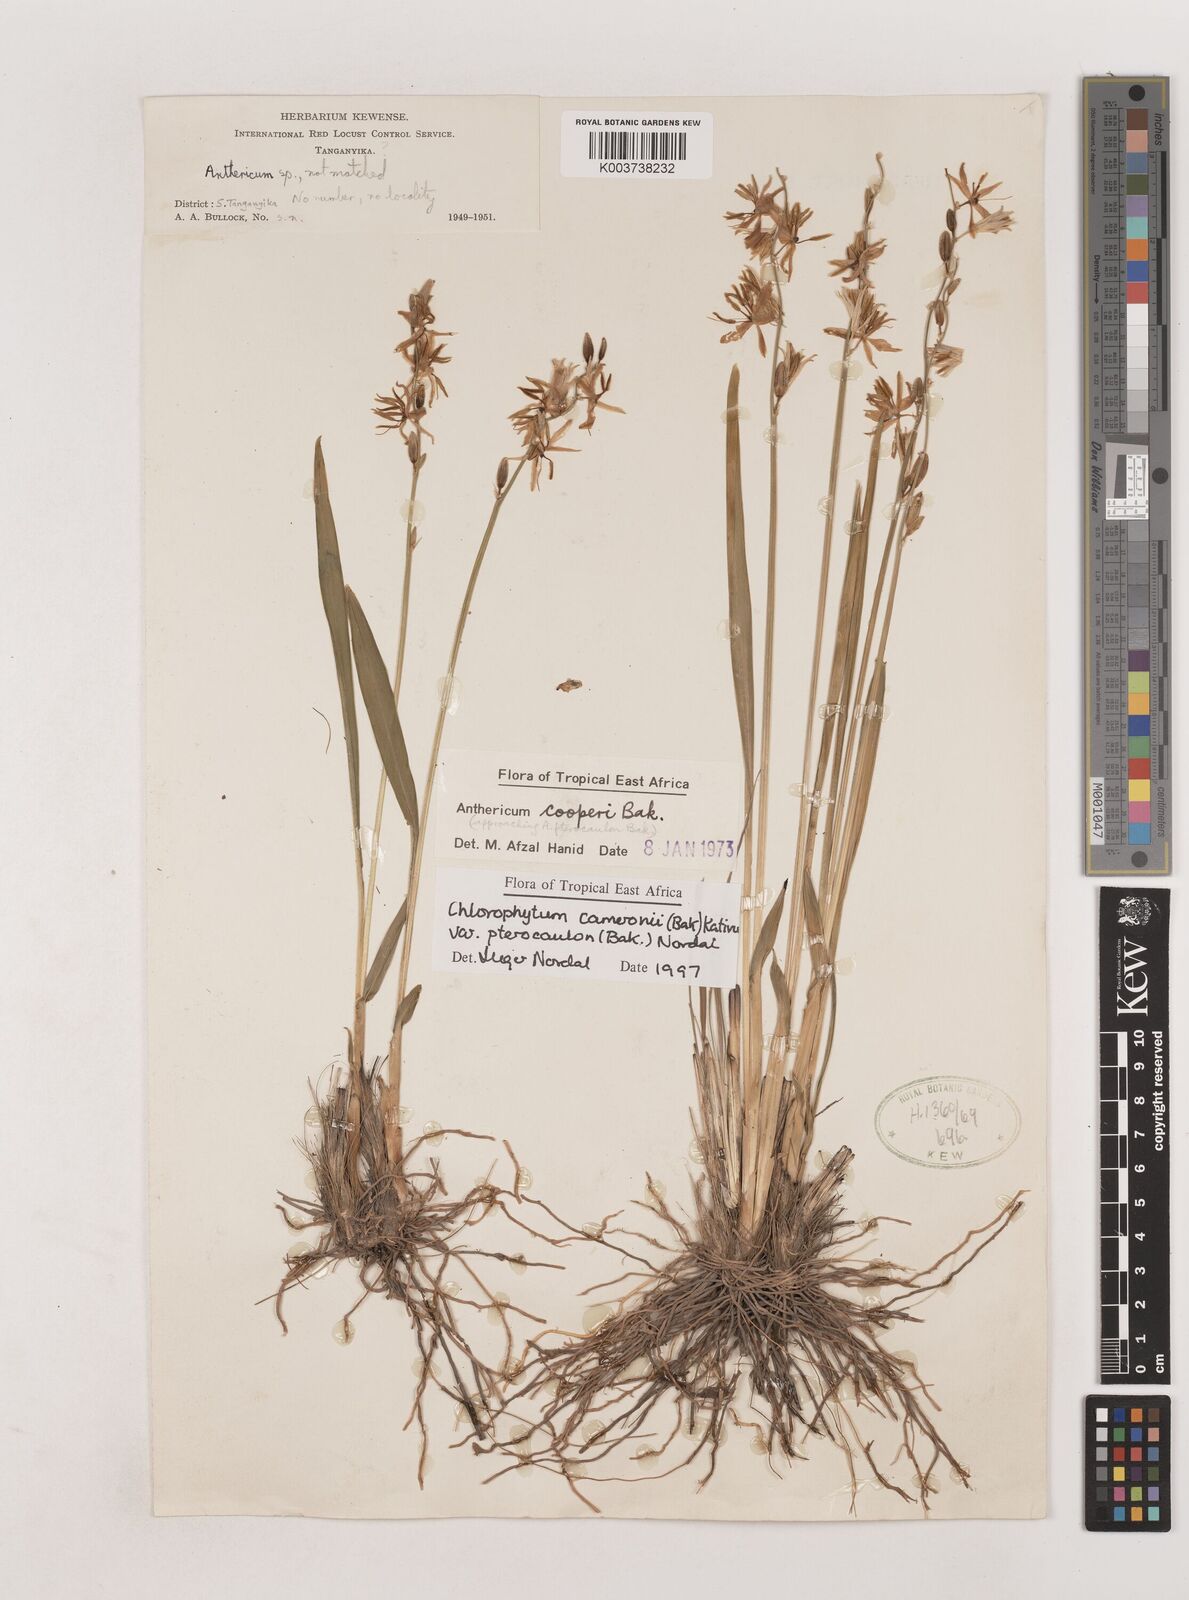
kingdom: Plantae
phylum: Tracheophyta
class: Liliopsida
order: Asparagales
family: Asparagaceae
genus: Chlorophytum
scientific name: Chlorophytum cameronii
